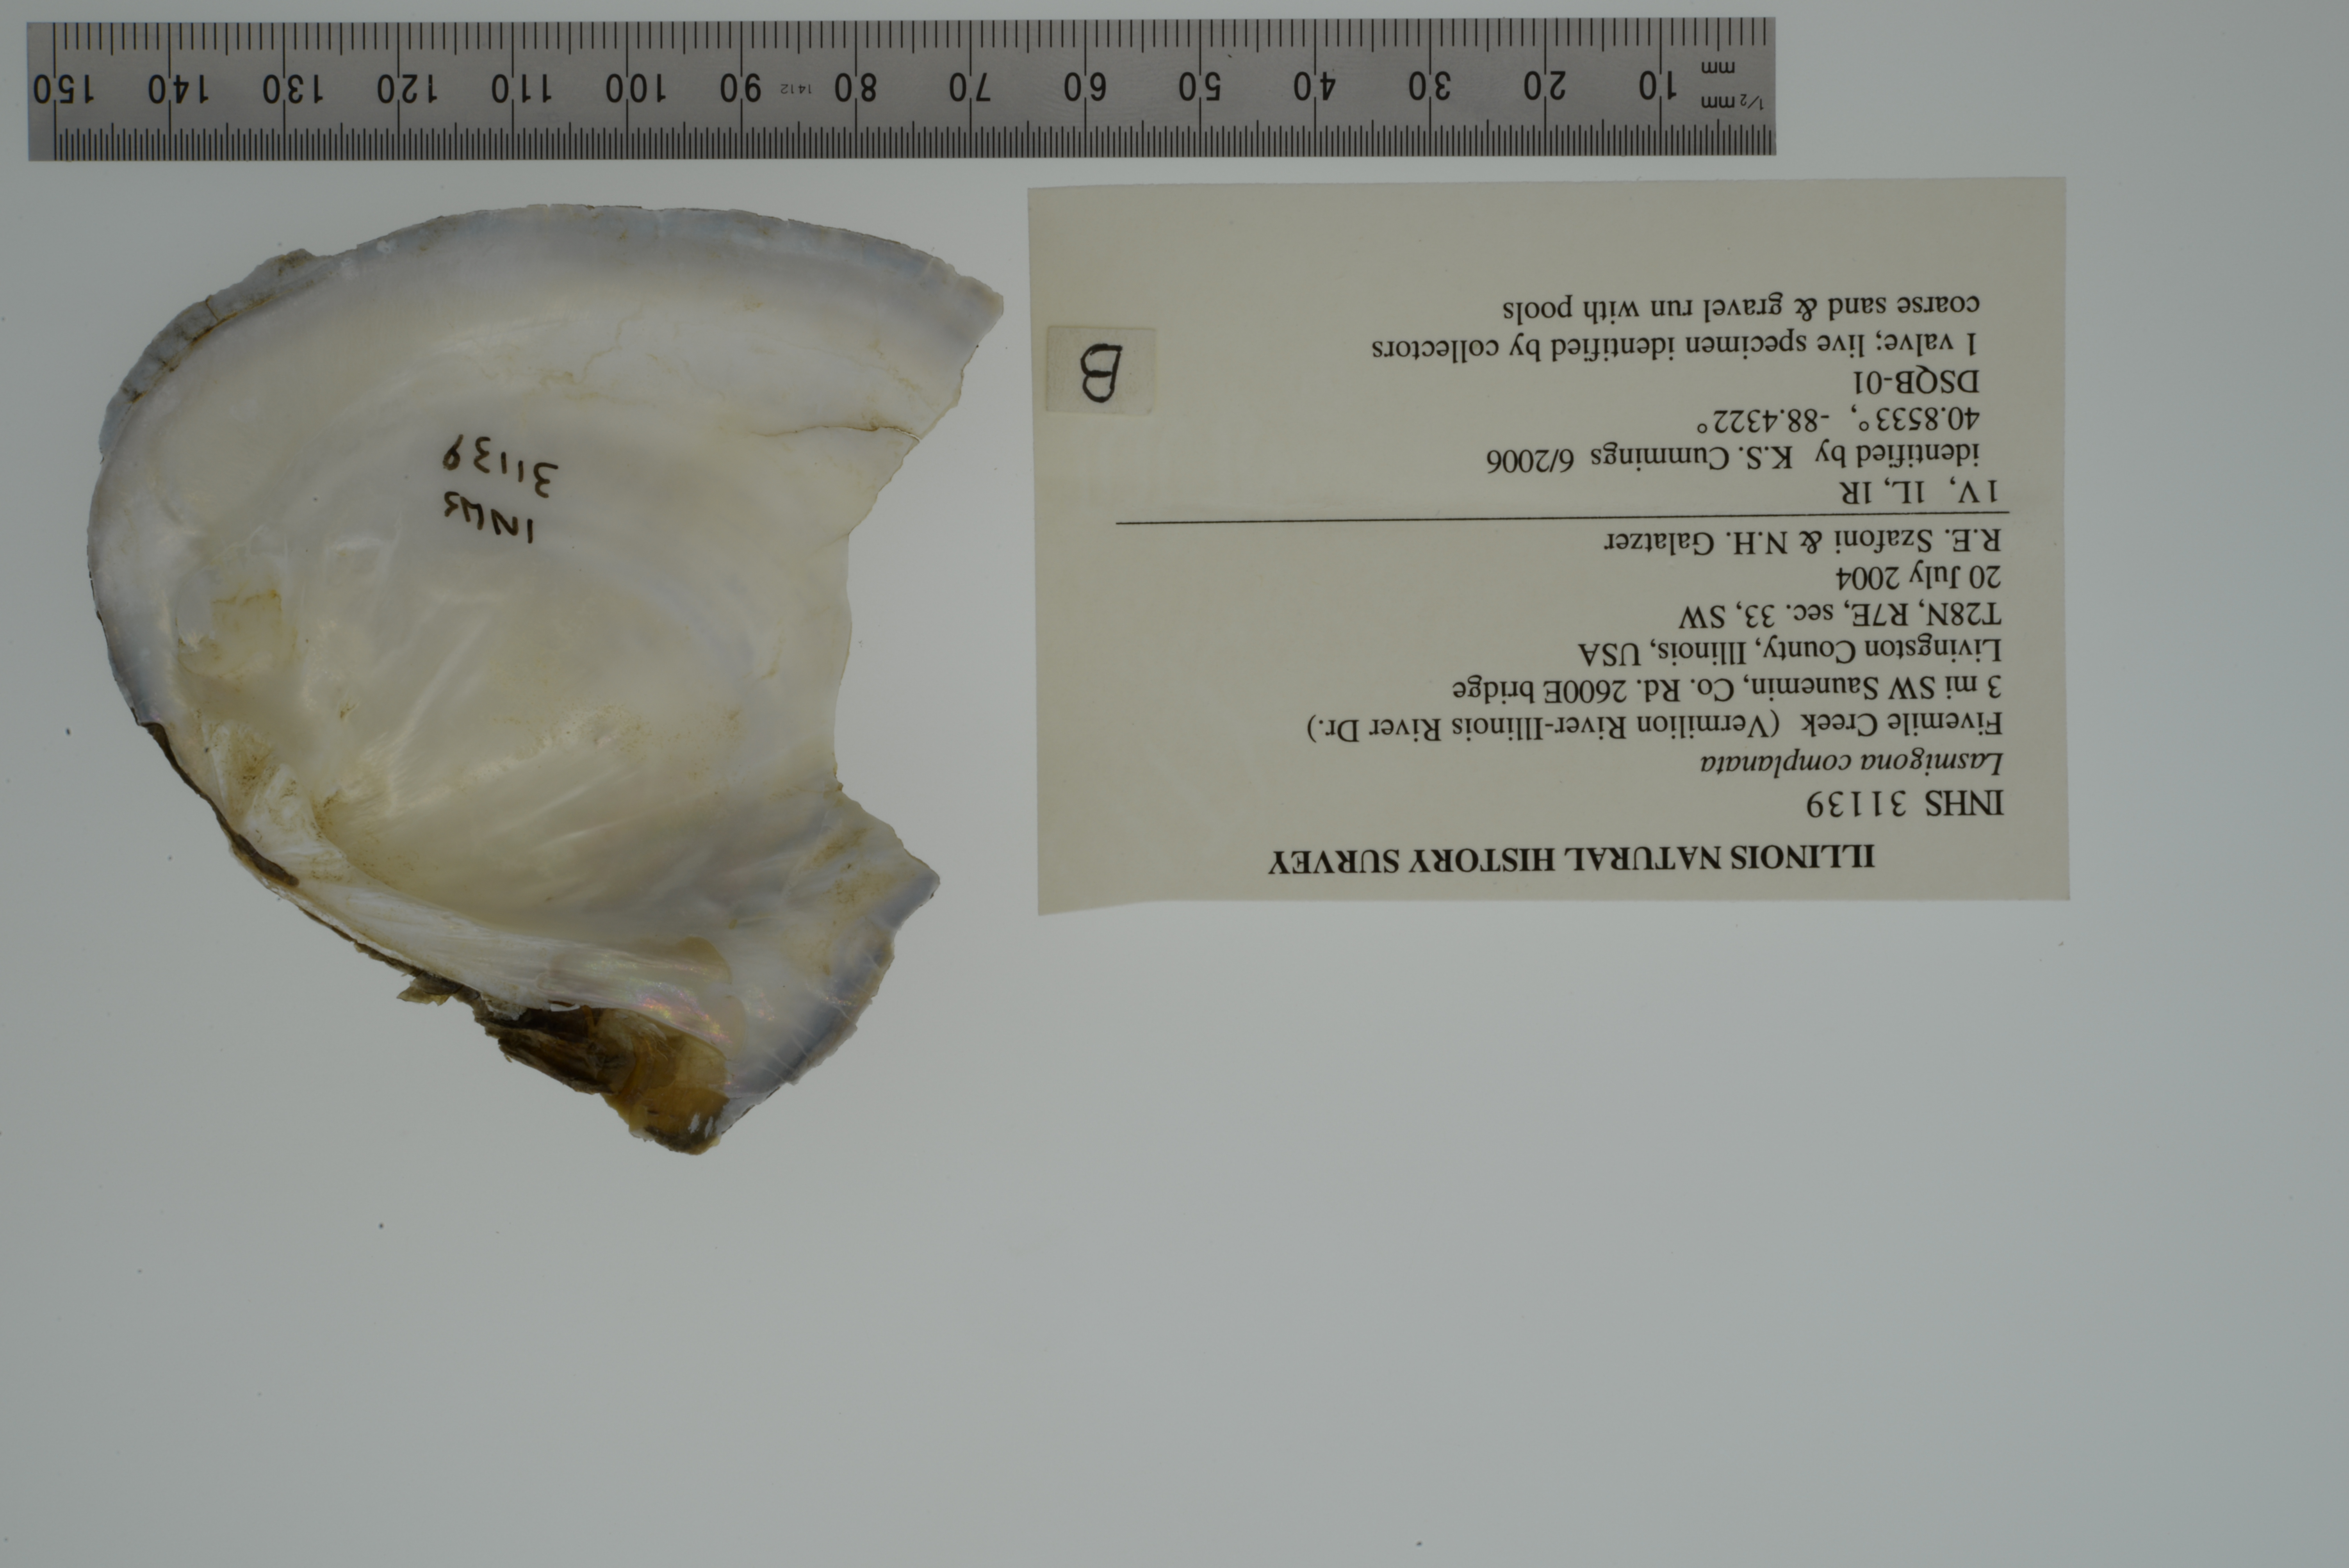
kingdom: Animalia
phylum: Mollusca
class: Bivalvia
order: Unionida
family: Unionidae
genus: Lasmigona
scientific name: Lasmigona complanata
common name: White heelsplitter
